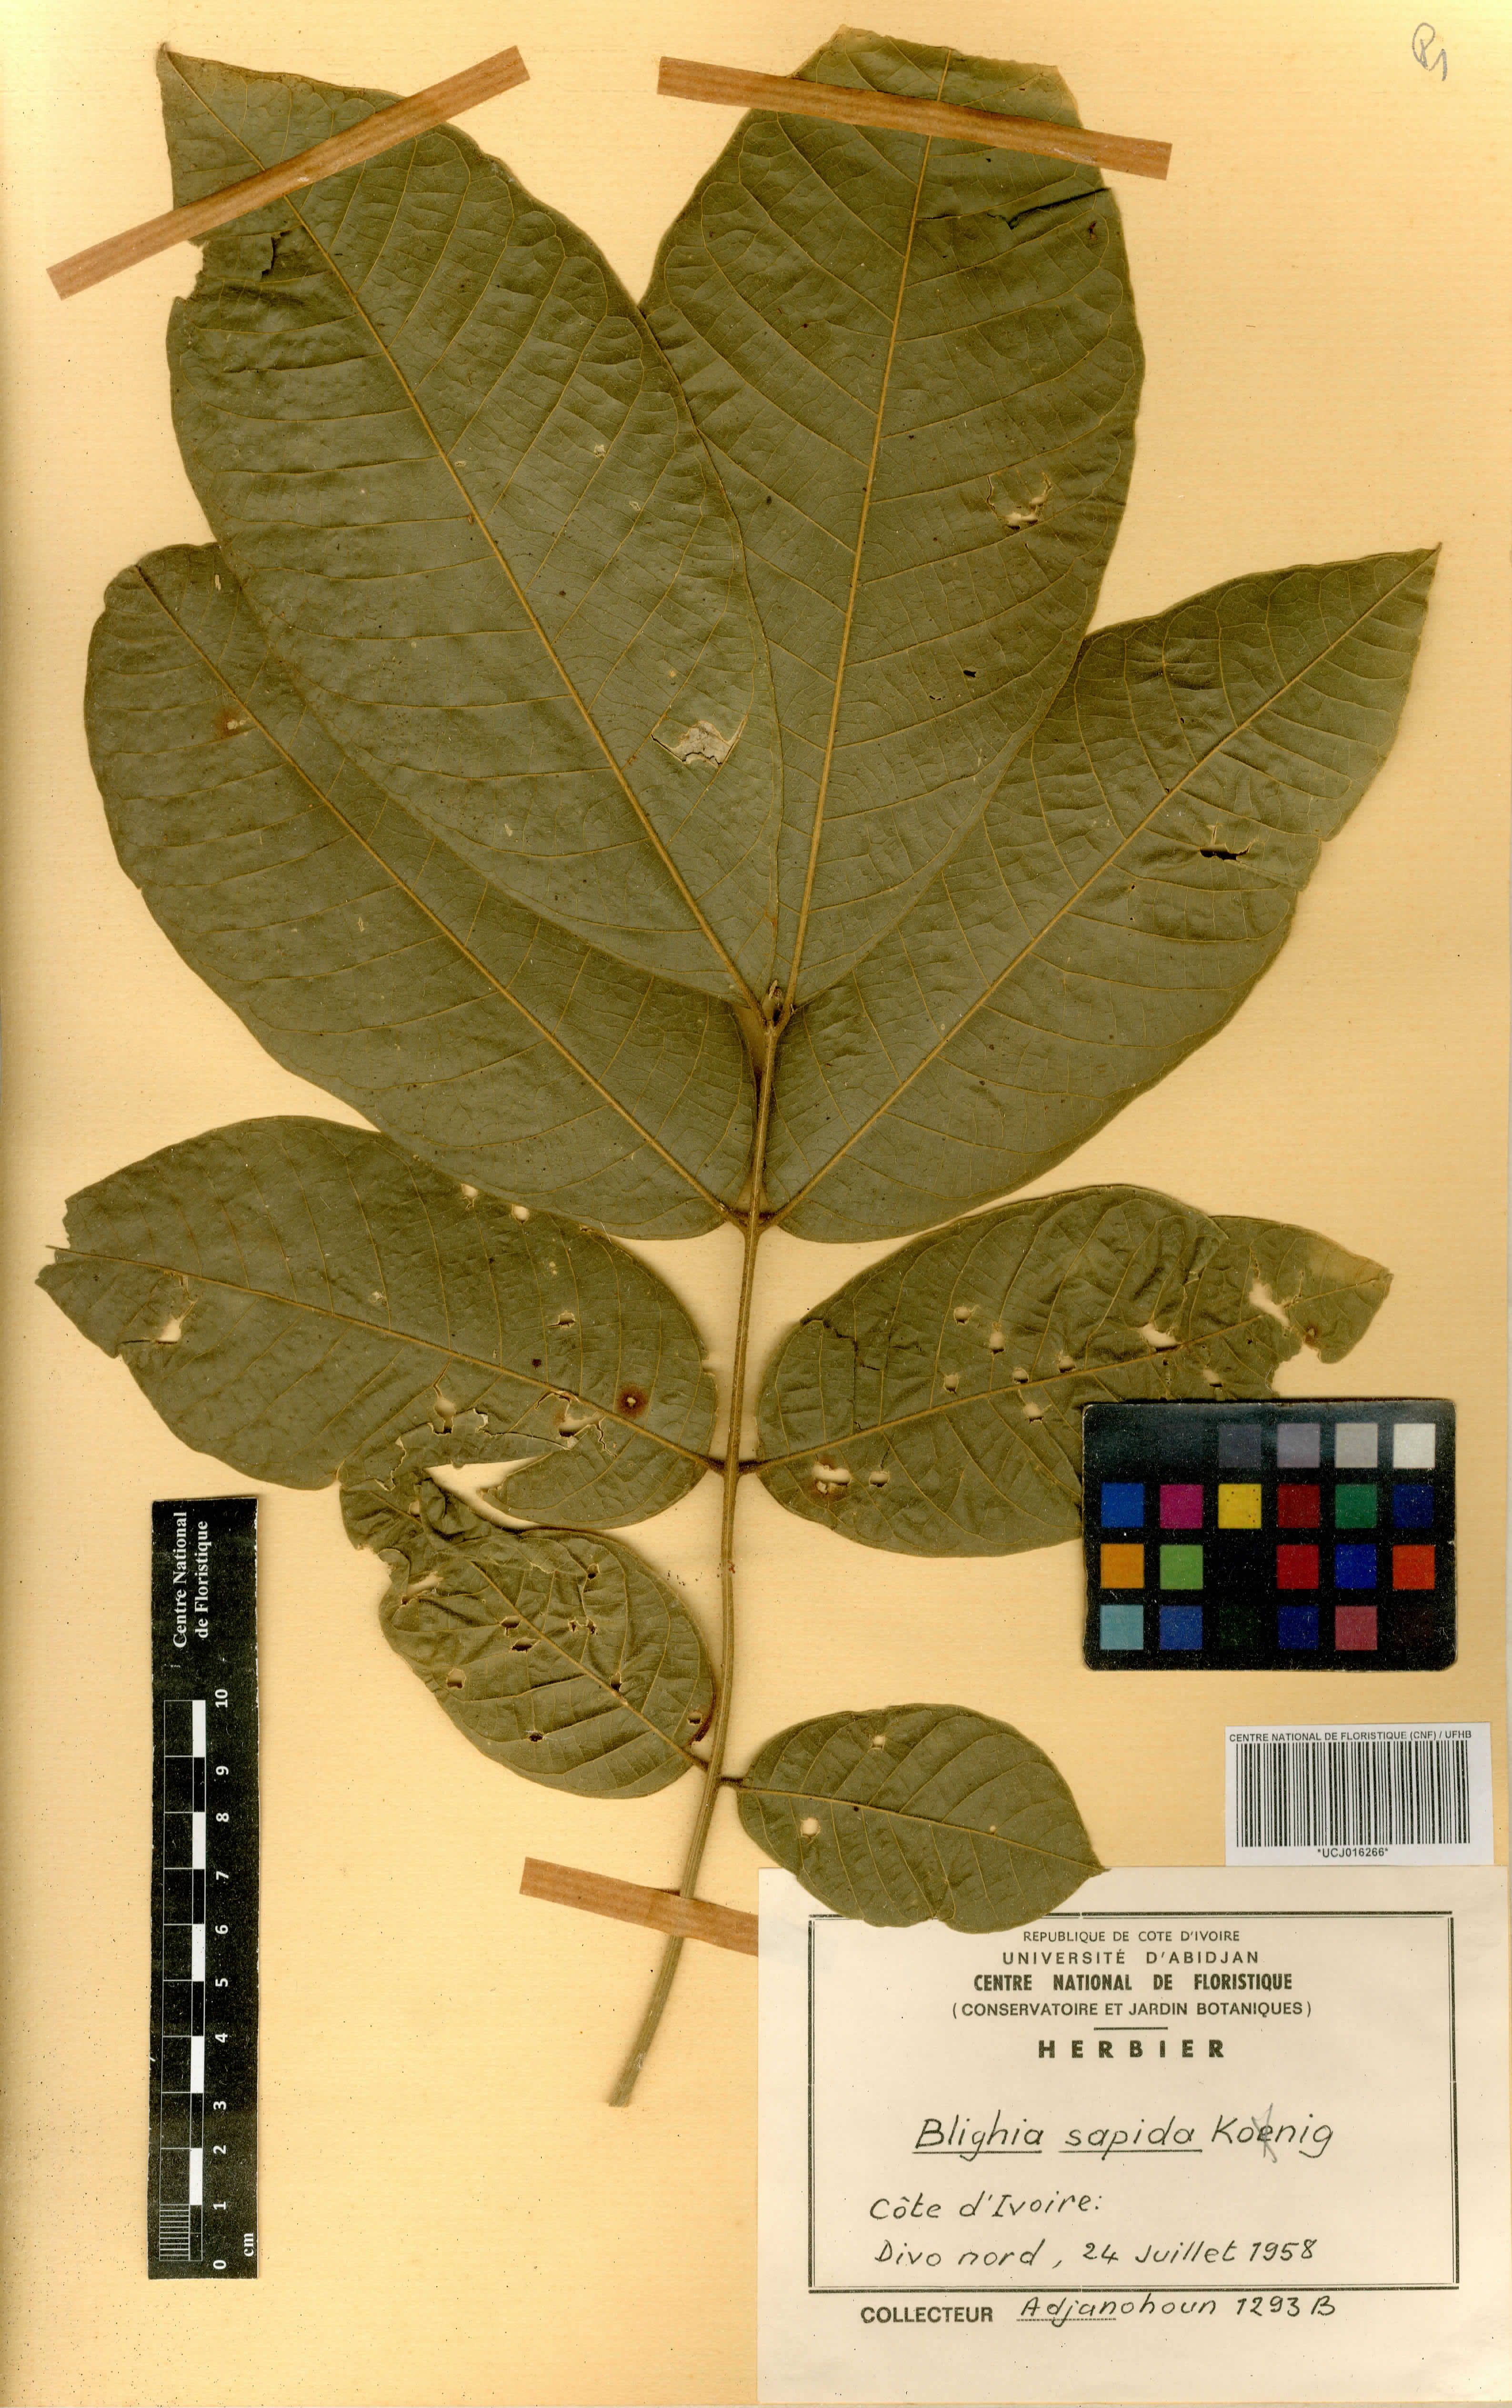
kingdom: Plantae
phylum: Tracheophyta
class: Magnoliopsida
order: Sapindales
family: Sapindaceae
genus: Blighia
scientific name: Blighia sapida
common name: Akee
